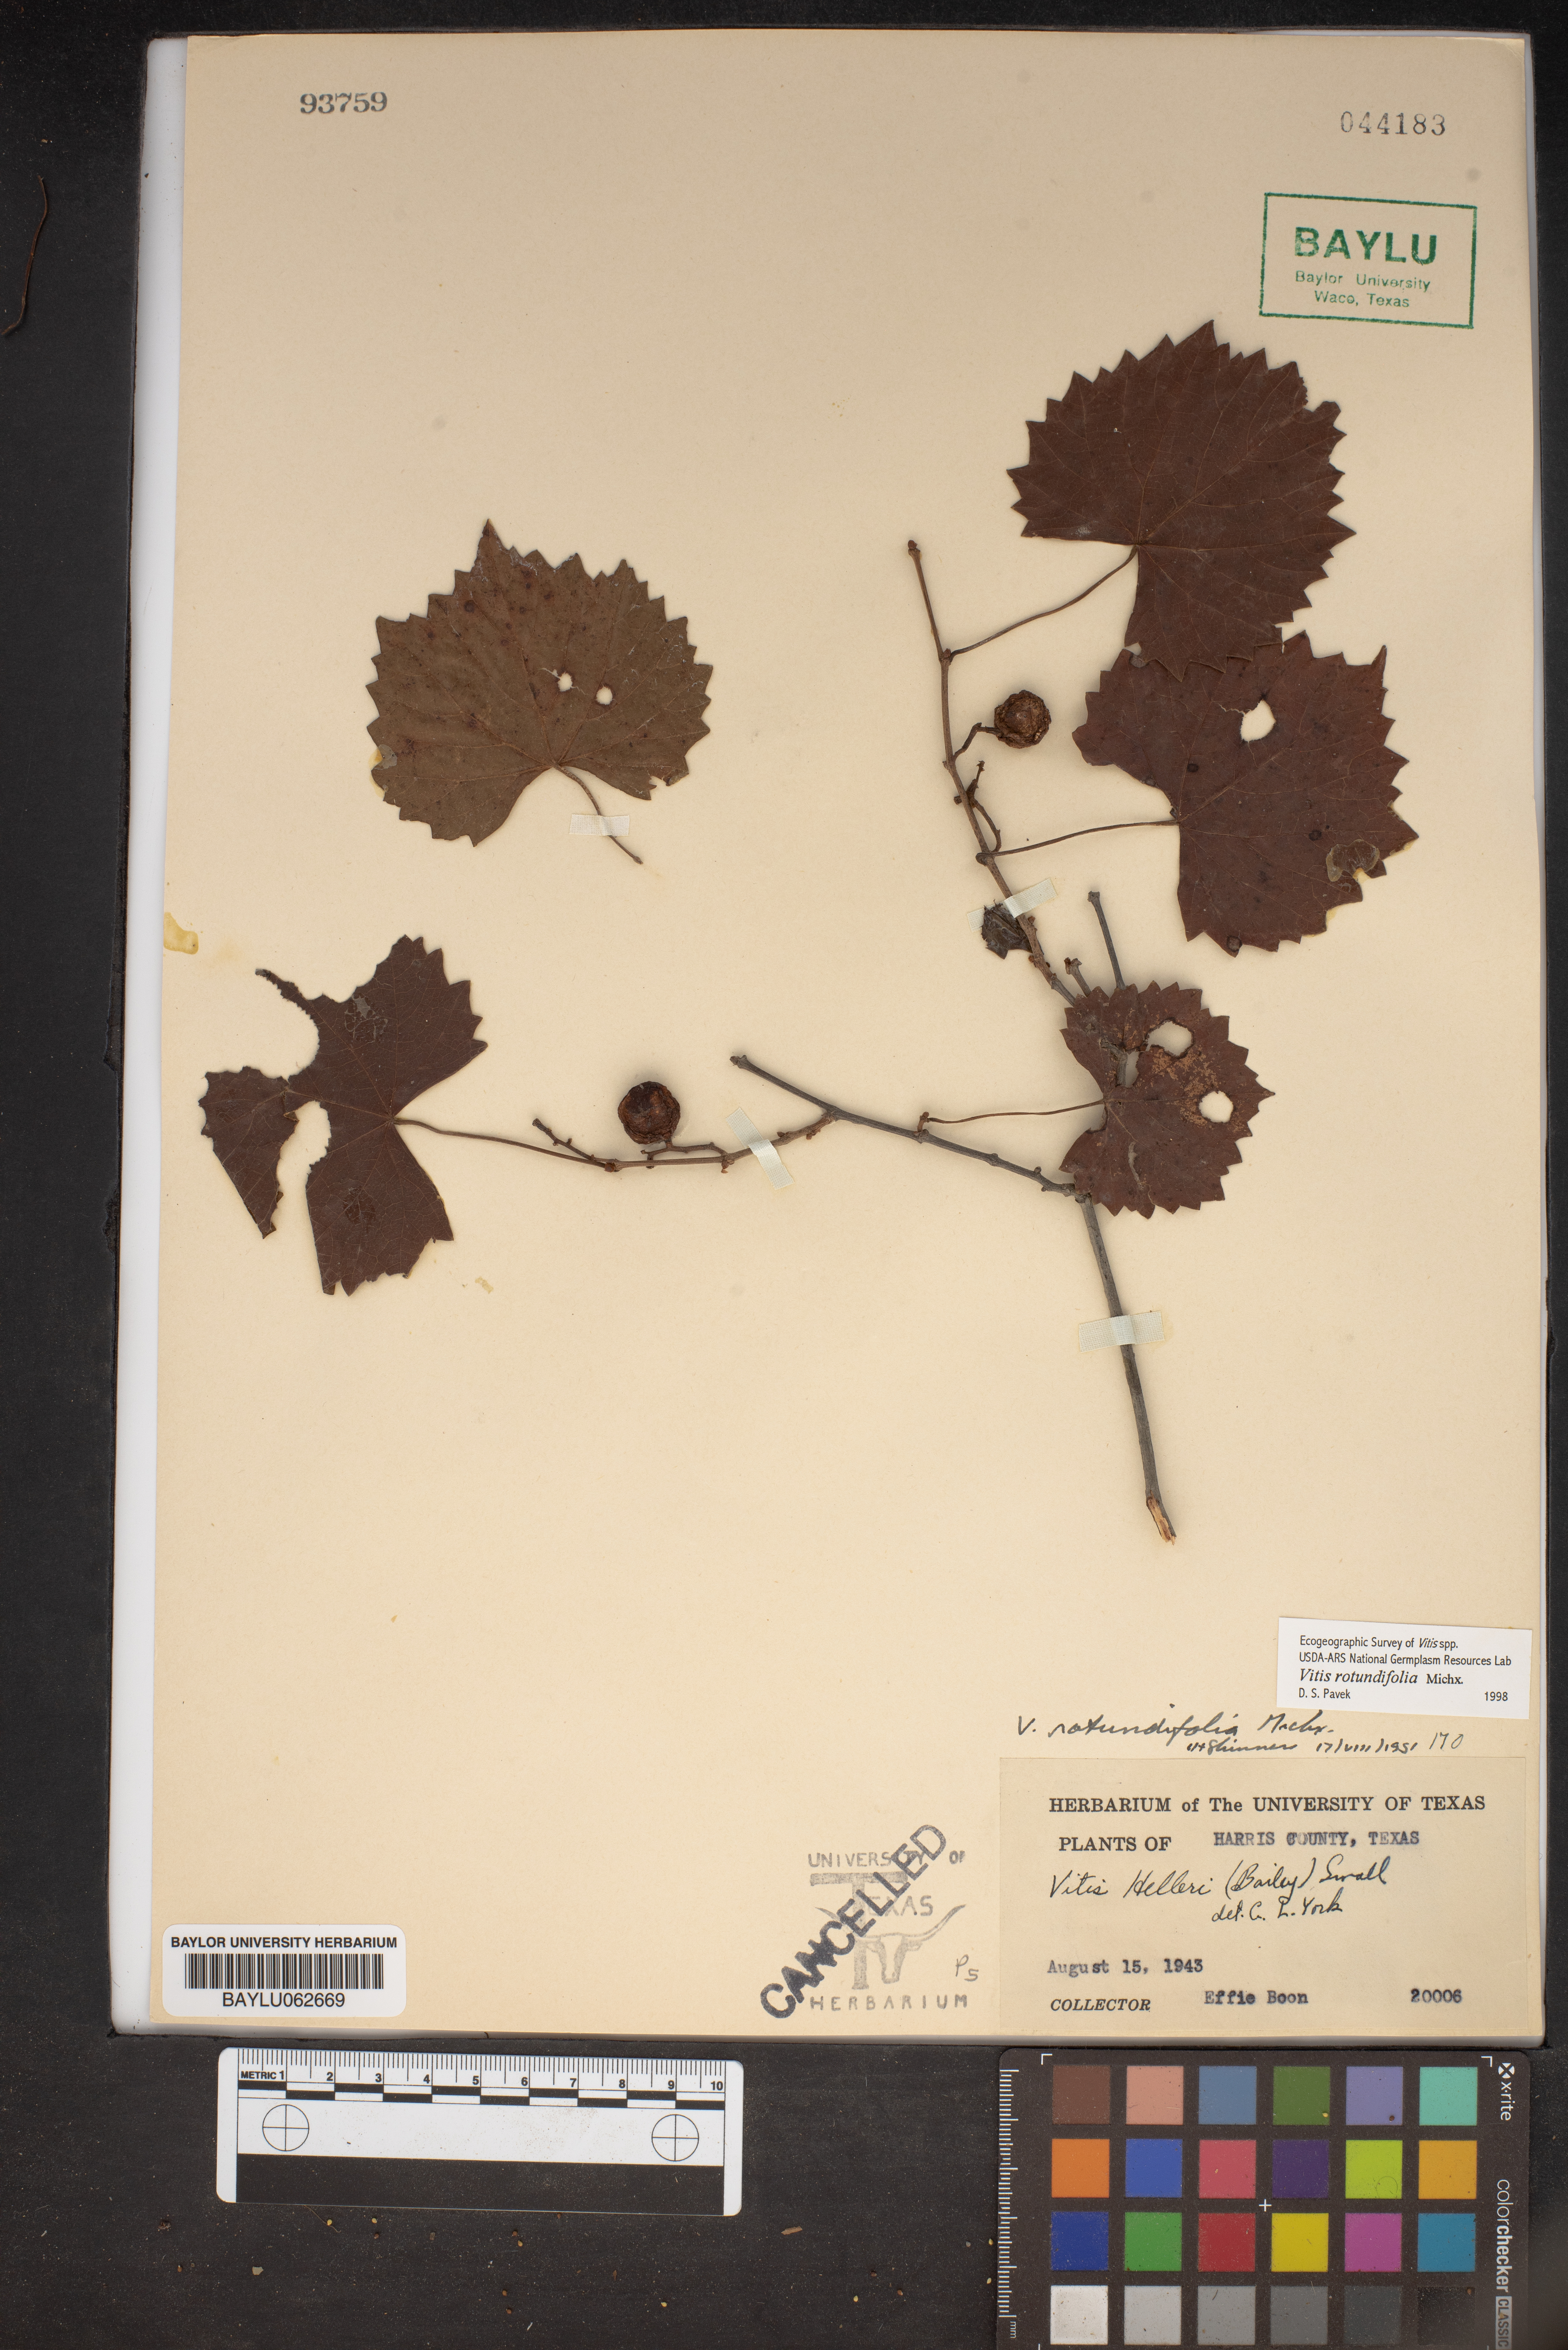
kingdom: Plantae
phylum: Tracheophyta
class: Magnoliopsida
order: Vitales
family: Vitaceae
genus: Vitis
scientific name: Vitis cinerea
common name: Ashy grape
